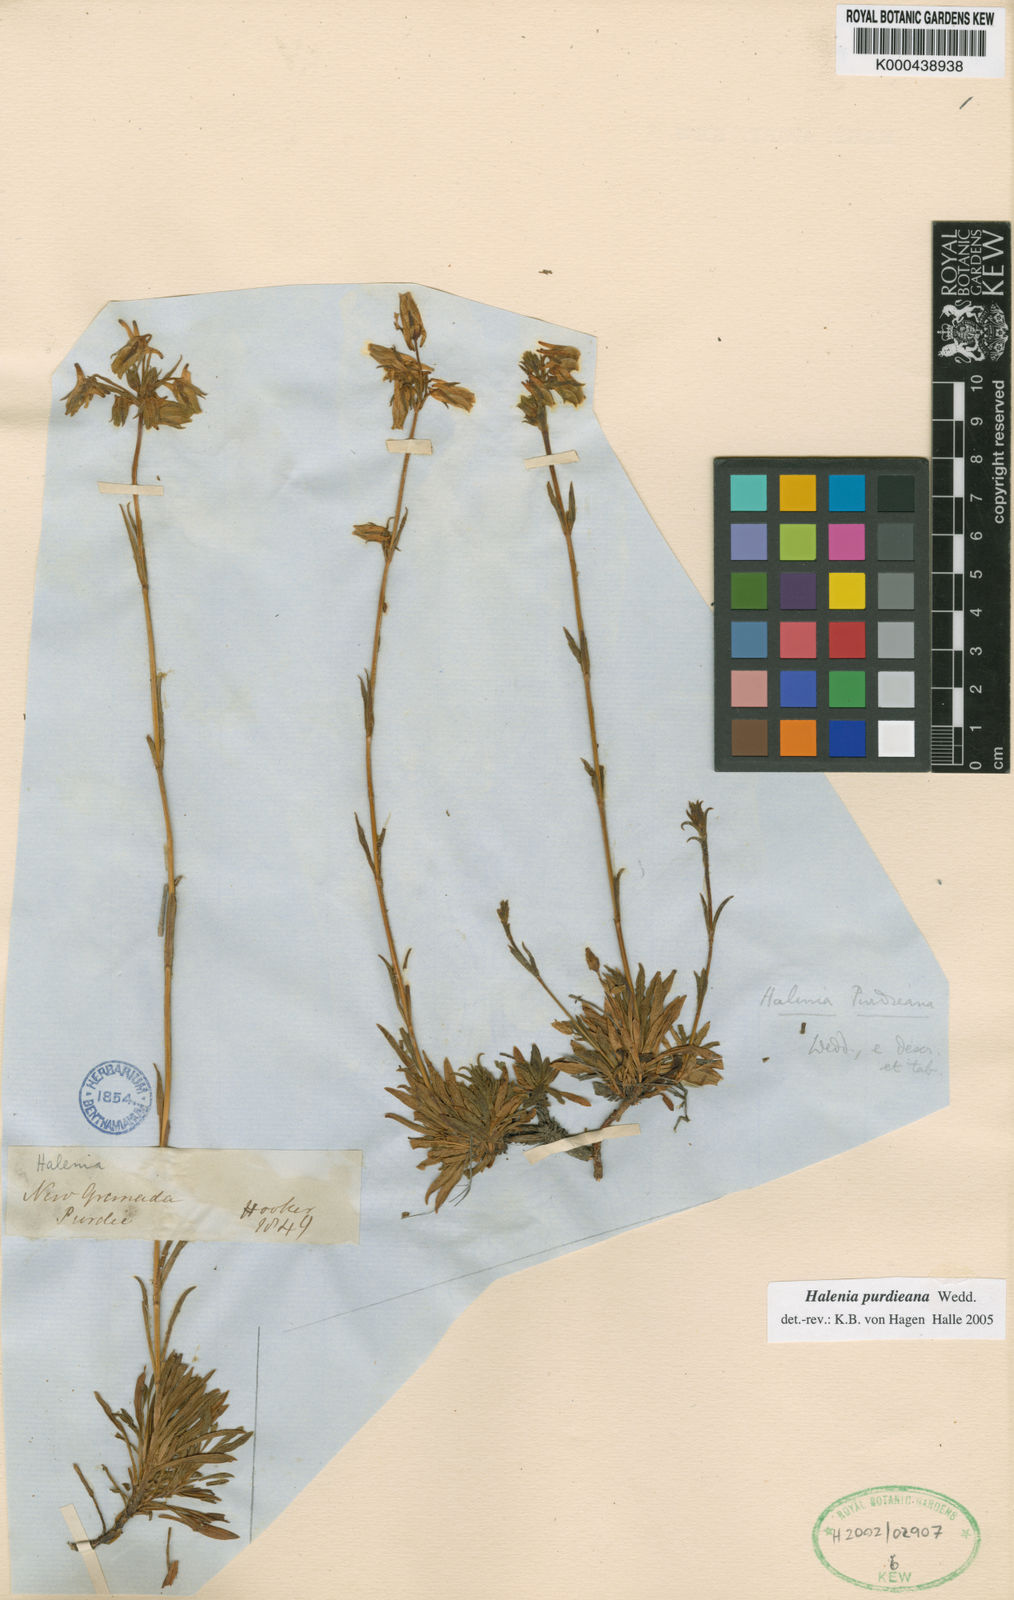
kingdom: Plantae
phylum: Tracheophyta
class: Magnoliopsida
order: Gentianales
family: Gentianaceae
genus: Halenia
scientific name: Halenia purdieana
